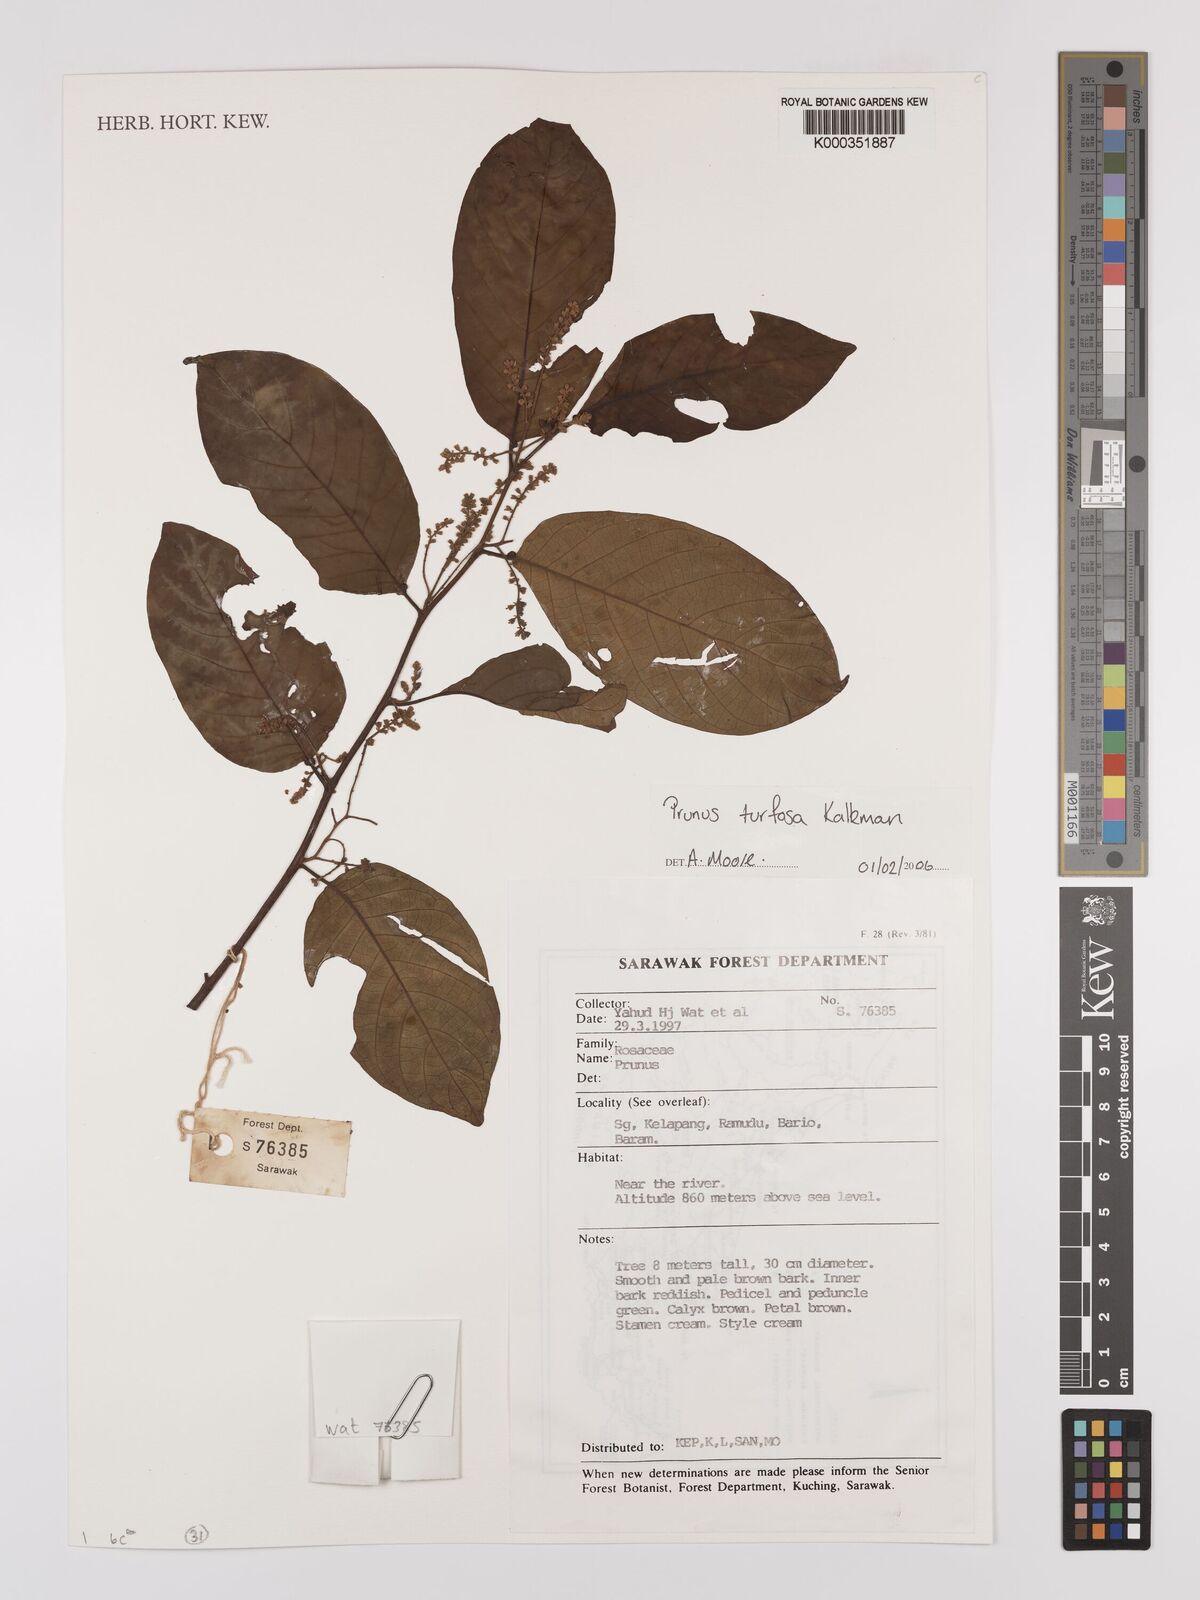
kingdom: Plantae
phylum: Tracheophyta
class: Magnoliopsida
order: Rosales
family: Rosaceae
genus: Prunus
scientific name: Prunus turfosa
